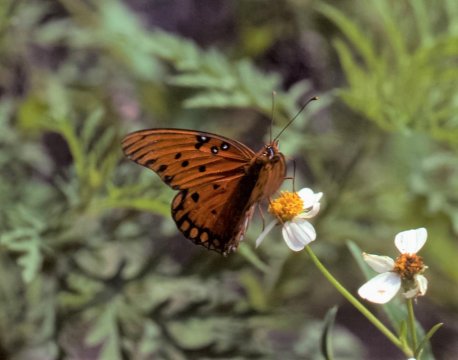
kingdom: Animalia
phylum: Arthropoda
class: Insecta
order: Lepidoptera
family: Nymphalidae
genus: Dione
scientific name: Dione vanillae
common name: Gulf Fritillary
